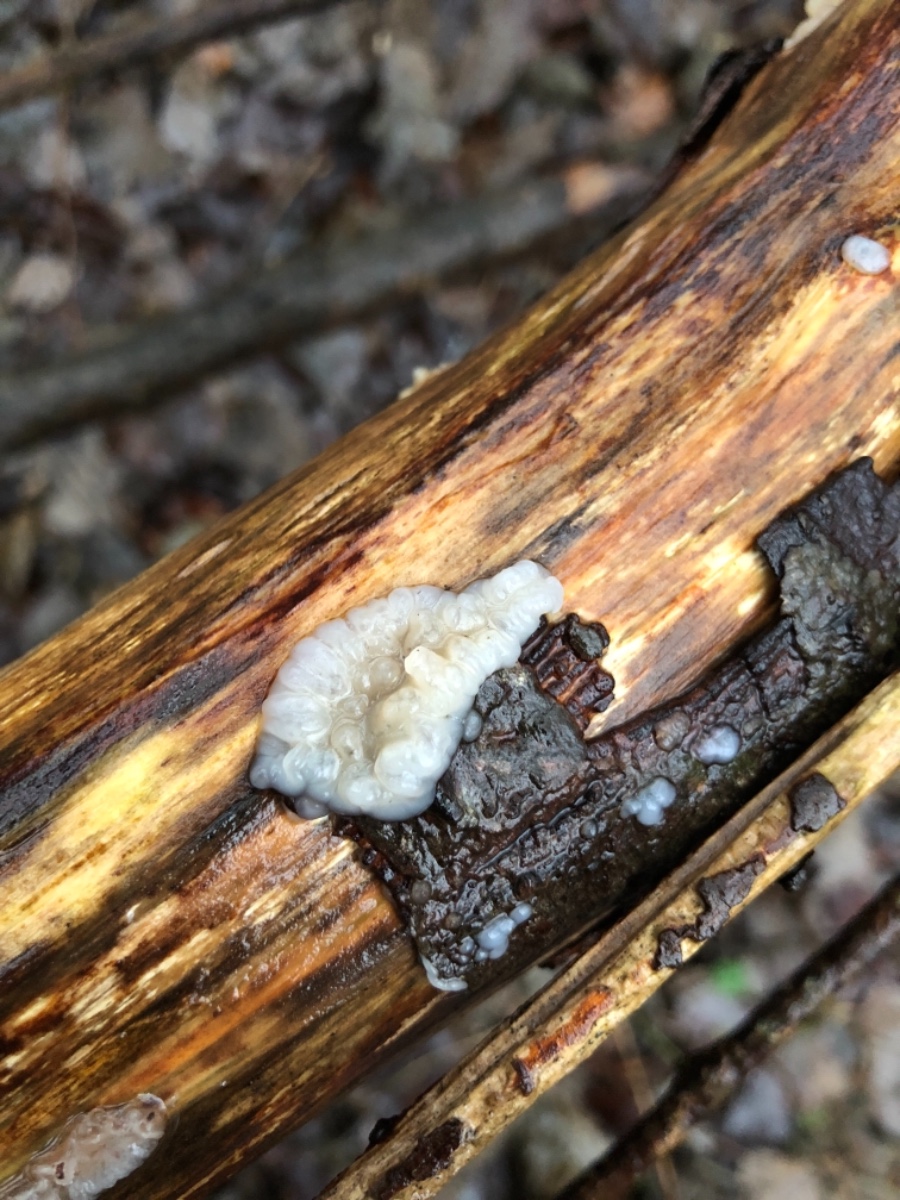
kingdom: Fungi
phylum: Basidiomycota
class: Agaricomycetes
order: Auriculariales
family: Auriculariaceae
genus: Exidia
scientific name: Exidia thuretiana
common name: hvidlig bævretop
